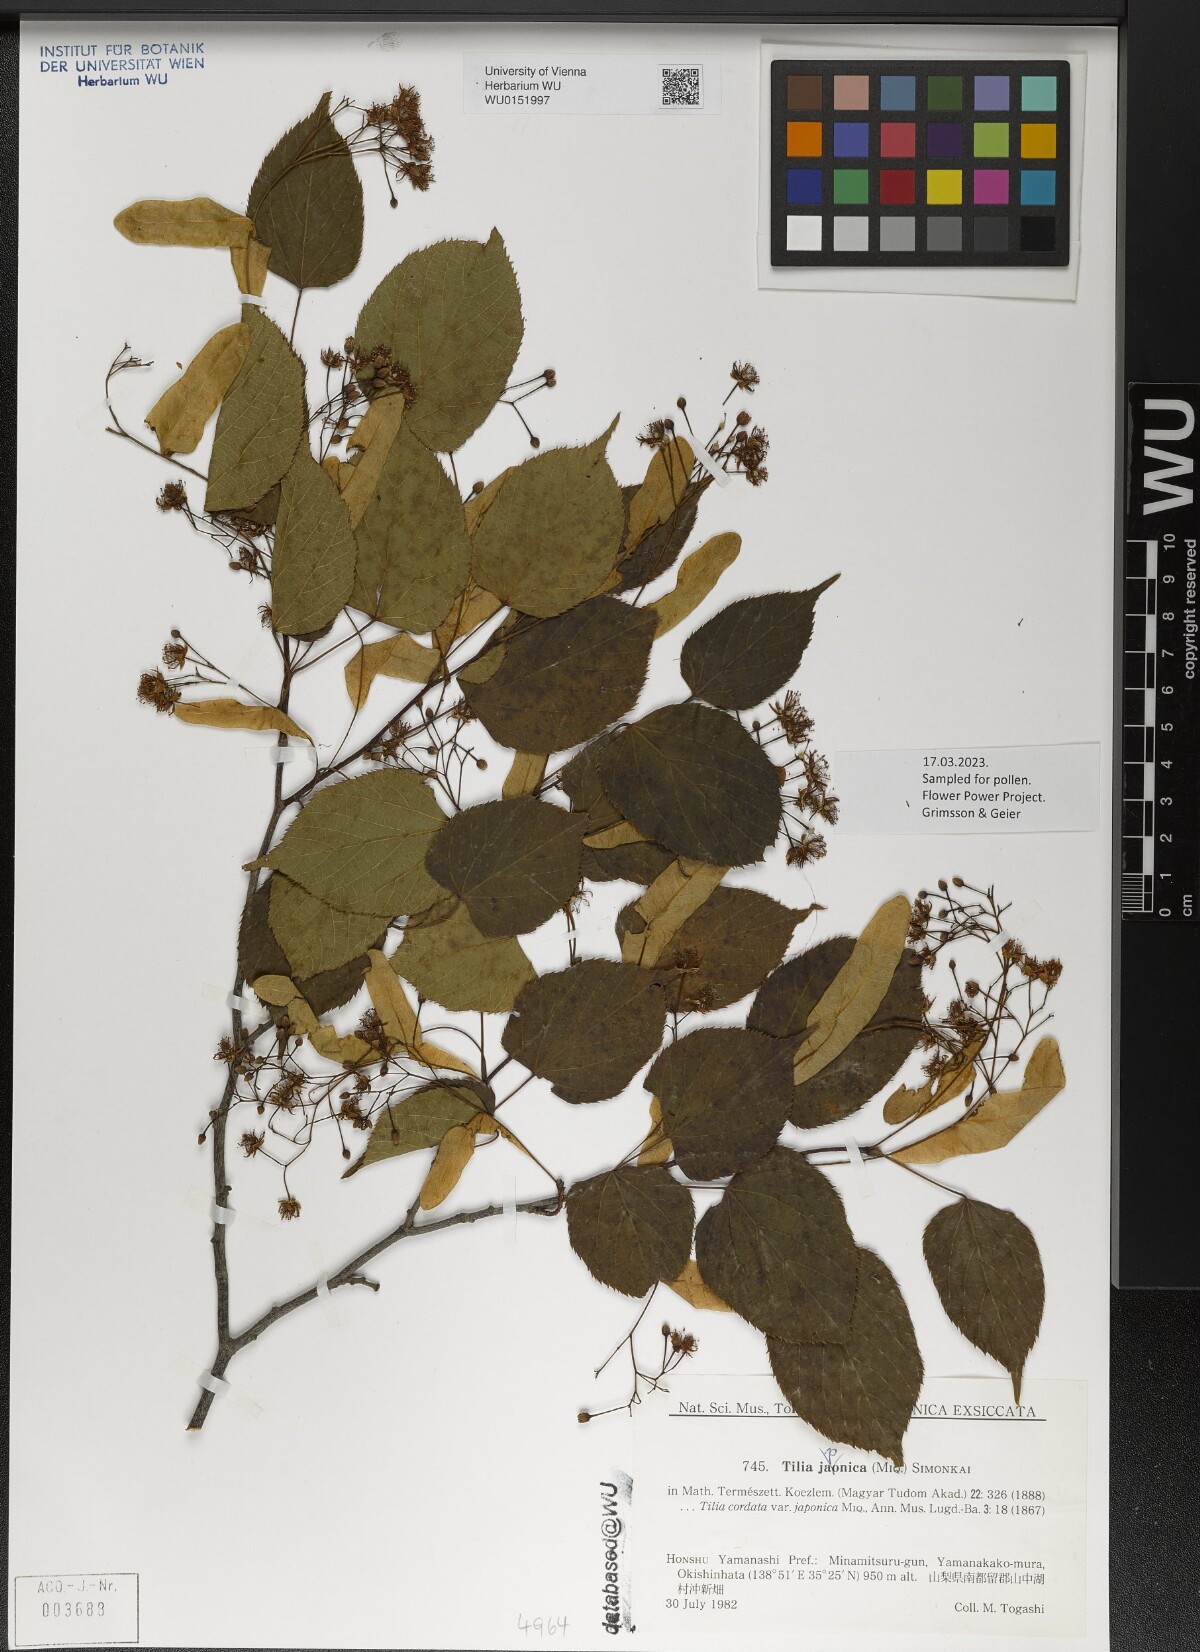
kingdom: Plantae
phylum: Tracheophyta
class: Magnoliopsida
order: Malvales
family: Malvaceae
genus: Tilia
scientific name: Tilia japonica
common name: Japanese lime
